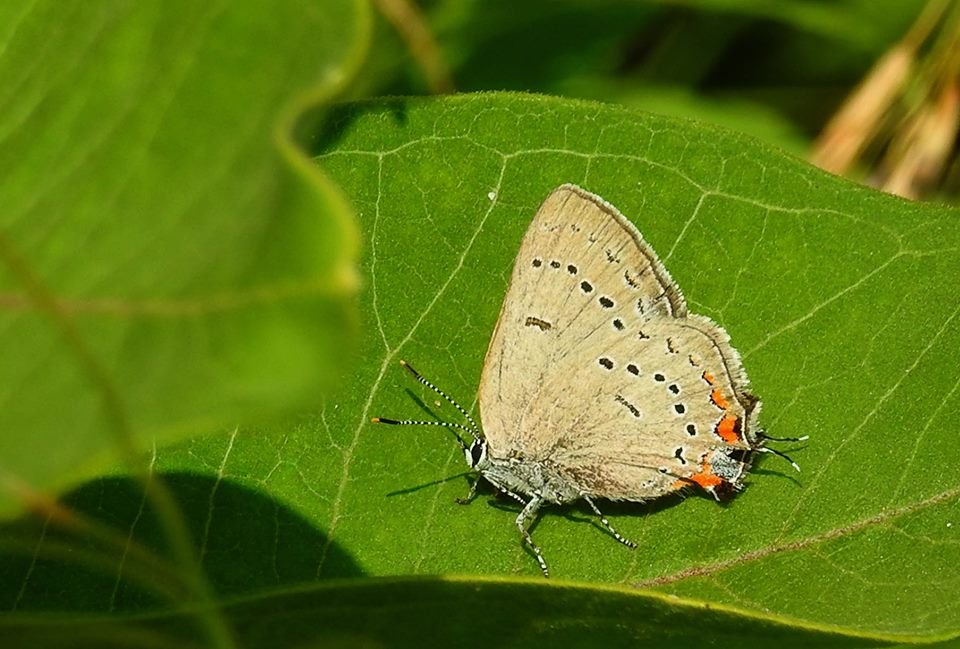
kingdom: Animalia
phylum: Arthropoda
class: Insecta
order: Lepidoptera
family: Lycaenidae
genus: Strymon
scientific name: Strymon acadica
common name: Acadian Hairstreak
